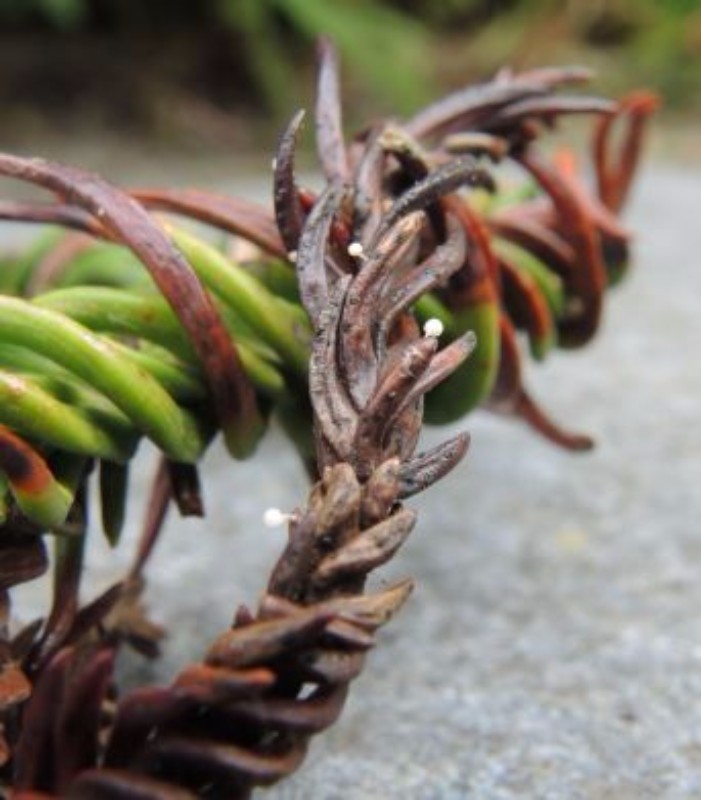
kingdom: Fungi
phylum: Basidiomycota
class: Agaricomycetes
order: Agaricales
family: Physalacriaceae
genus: Physalacria
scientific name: Physalacria cryptomeriae
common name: japangran-boldkølle
